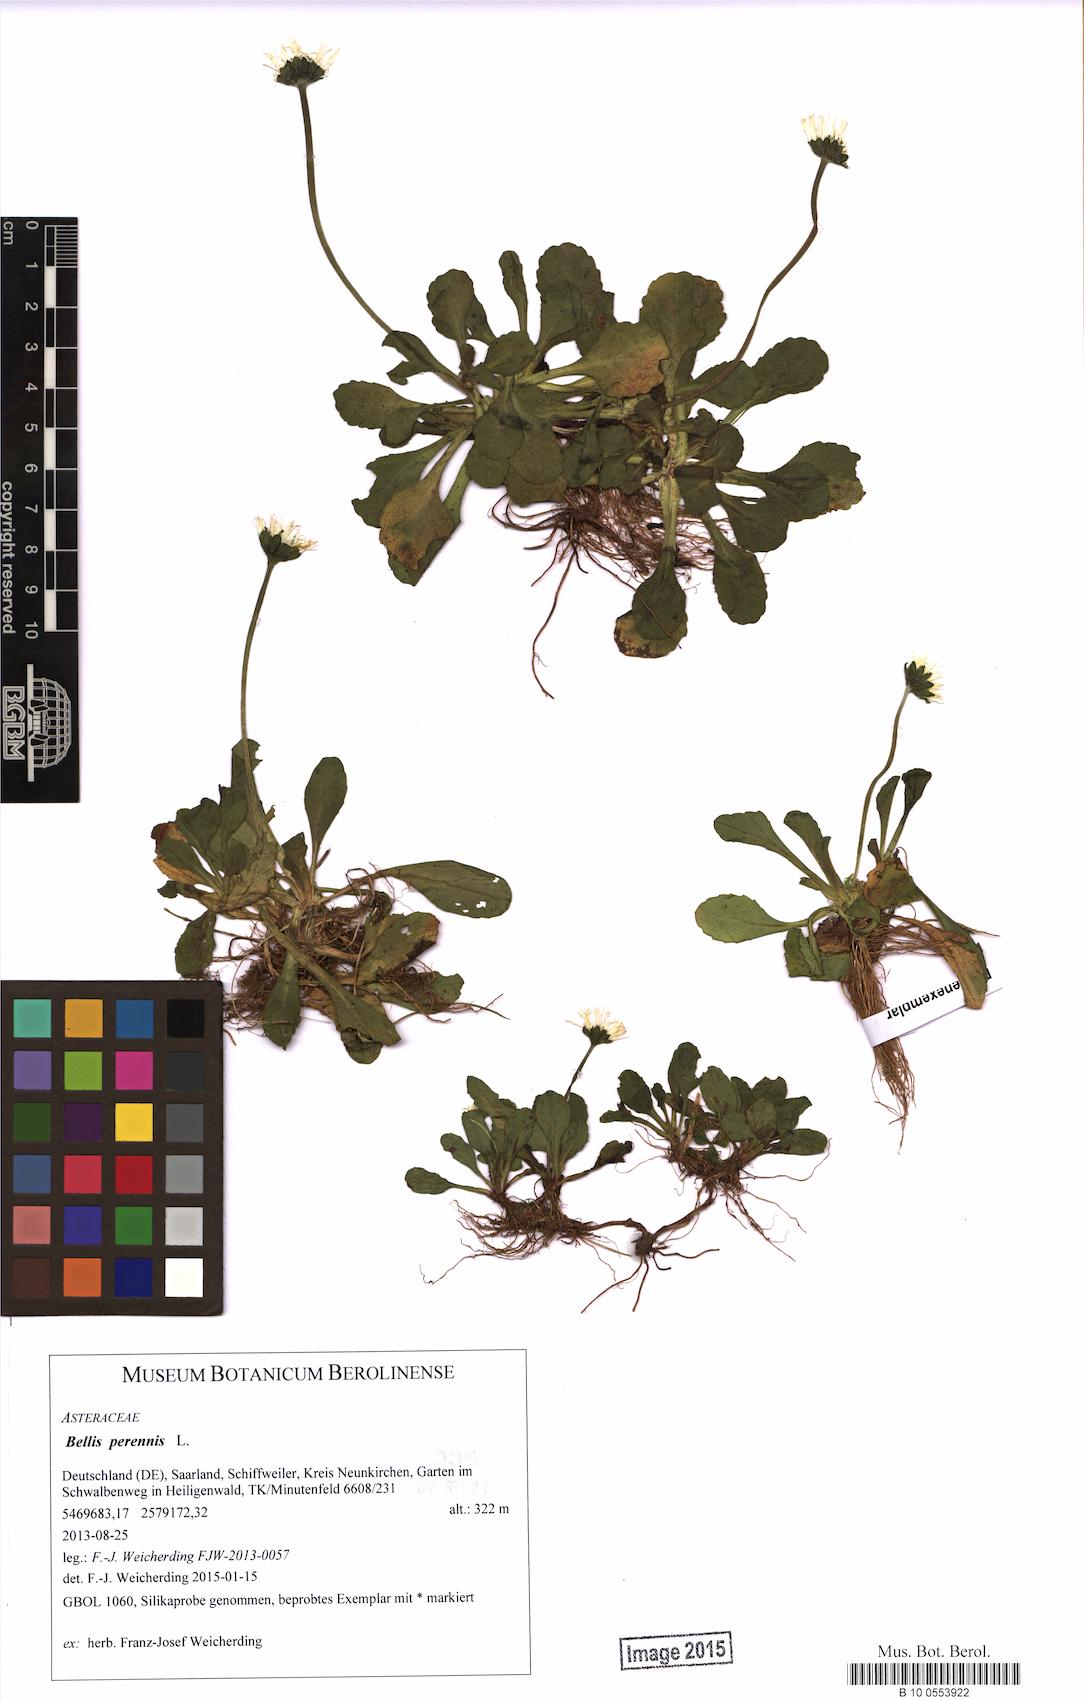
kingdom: Plantae
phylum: Tracheophyta
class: Magnoliopsida
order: Asterales
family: Asteraceae
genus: Bellis
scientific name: Bellis perennis
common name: Lawndaisy
